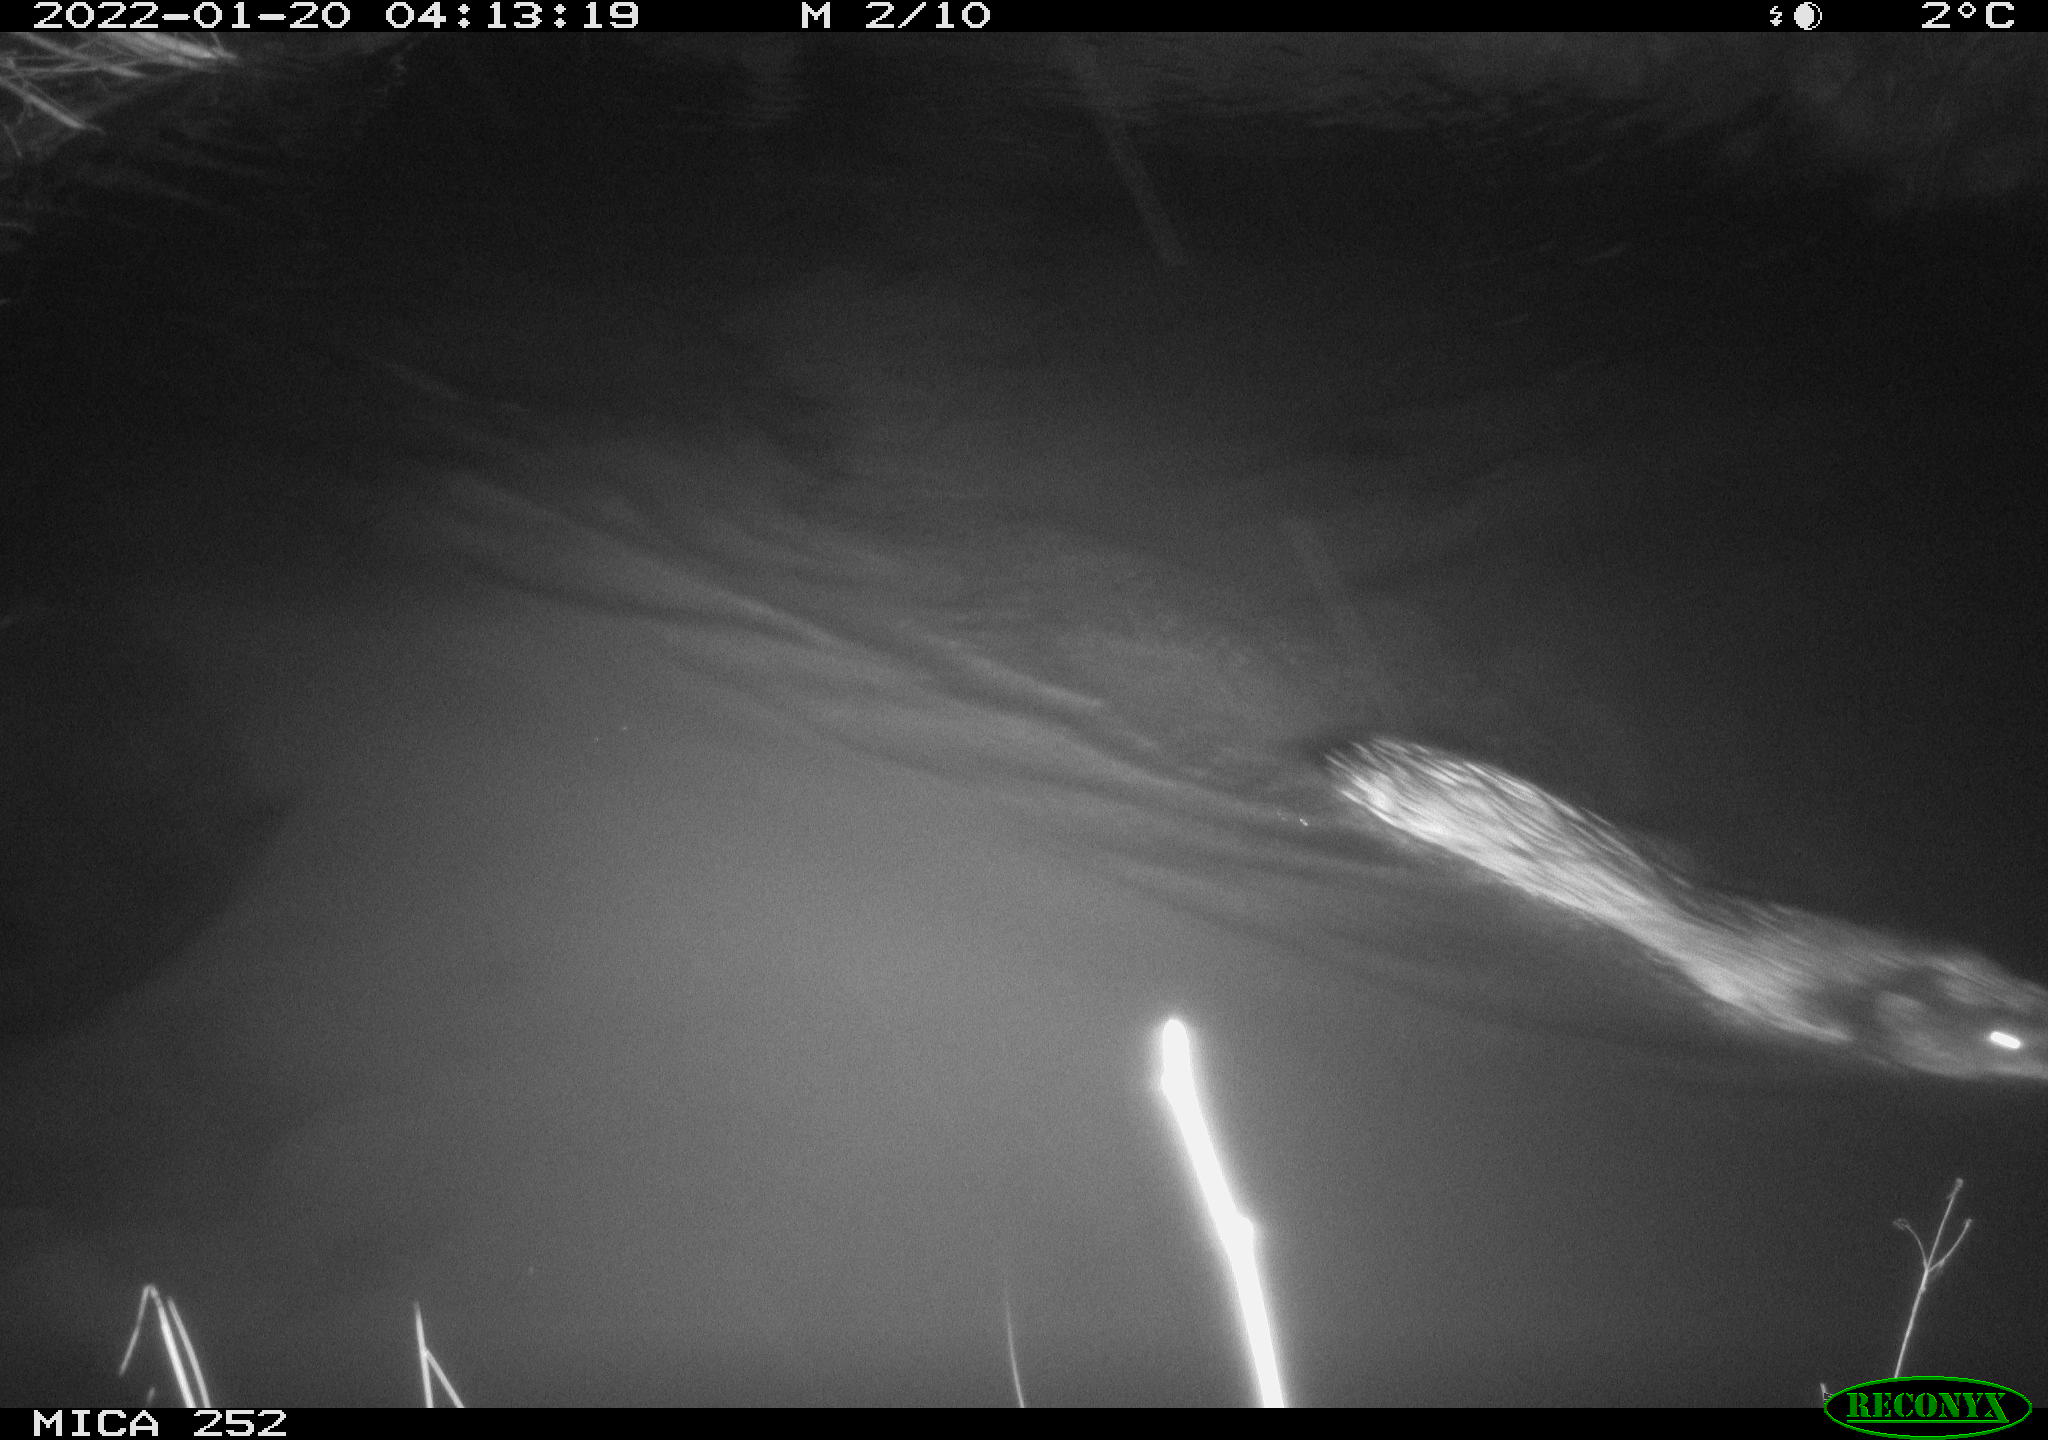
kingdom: Animalia
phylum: Chordata
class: Mammalia
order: Rodentia
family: Castoridae
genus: Castor
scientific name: Castor fiber
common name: Eurasian beaver
